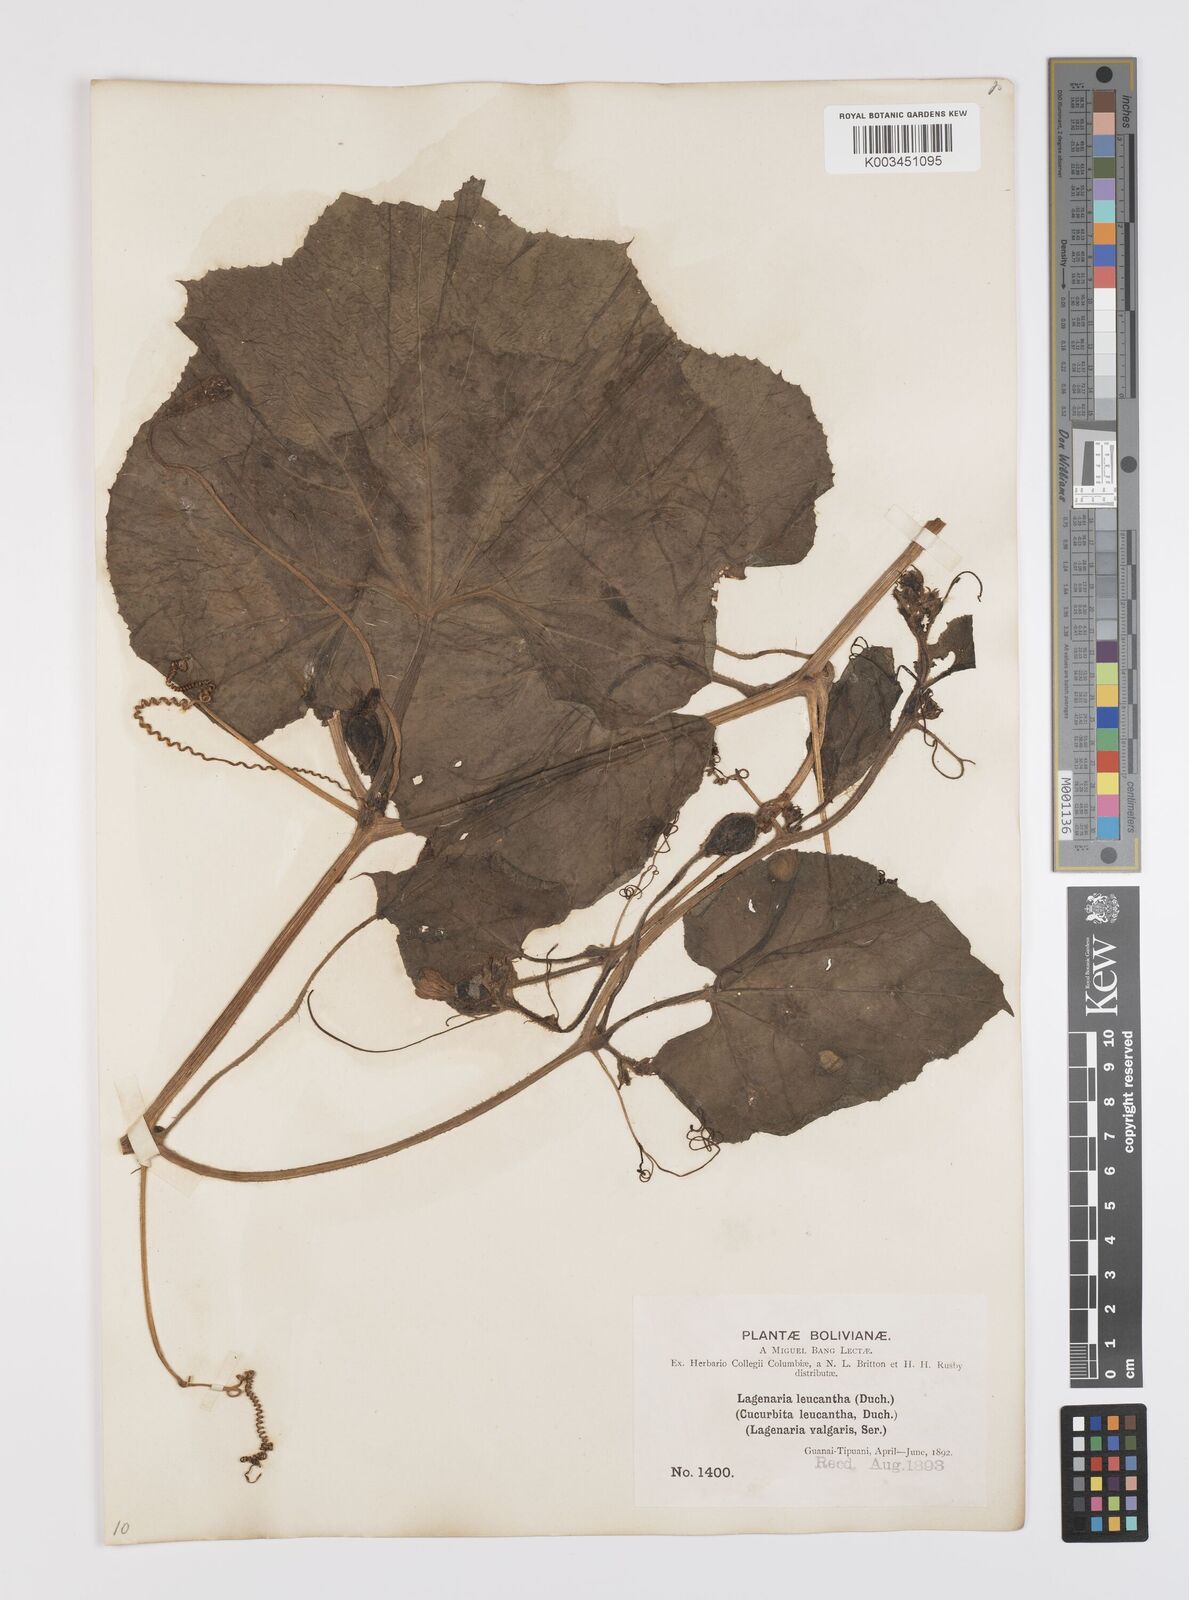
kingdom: Plantae
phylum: Tracheophyta
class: Magnoliopsida
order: Cucurbitales
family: Cucurbitaceae
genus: Lagenaria
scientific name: Lagenaria siceraria
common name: Bottle gourd
